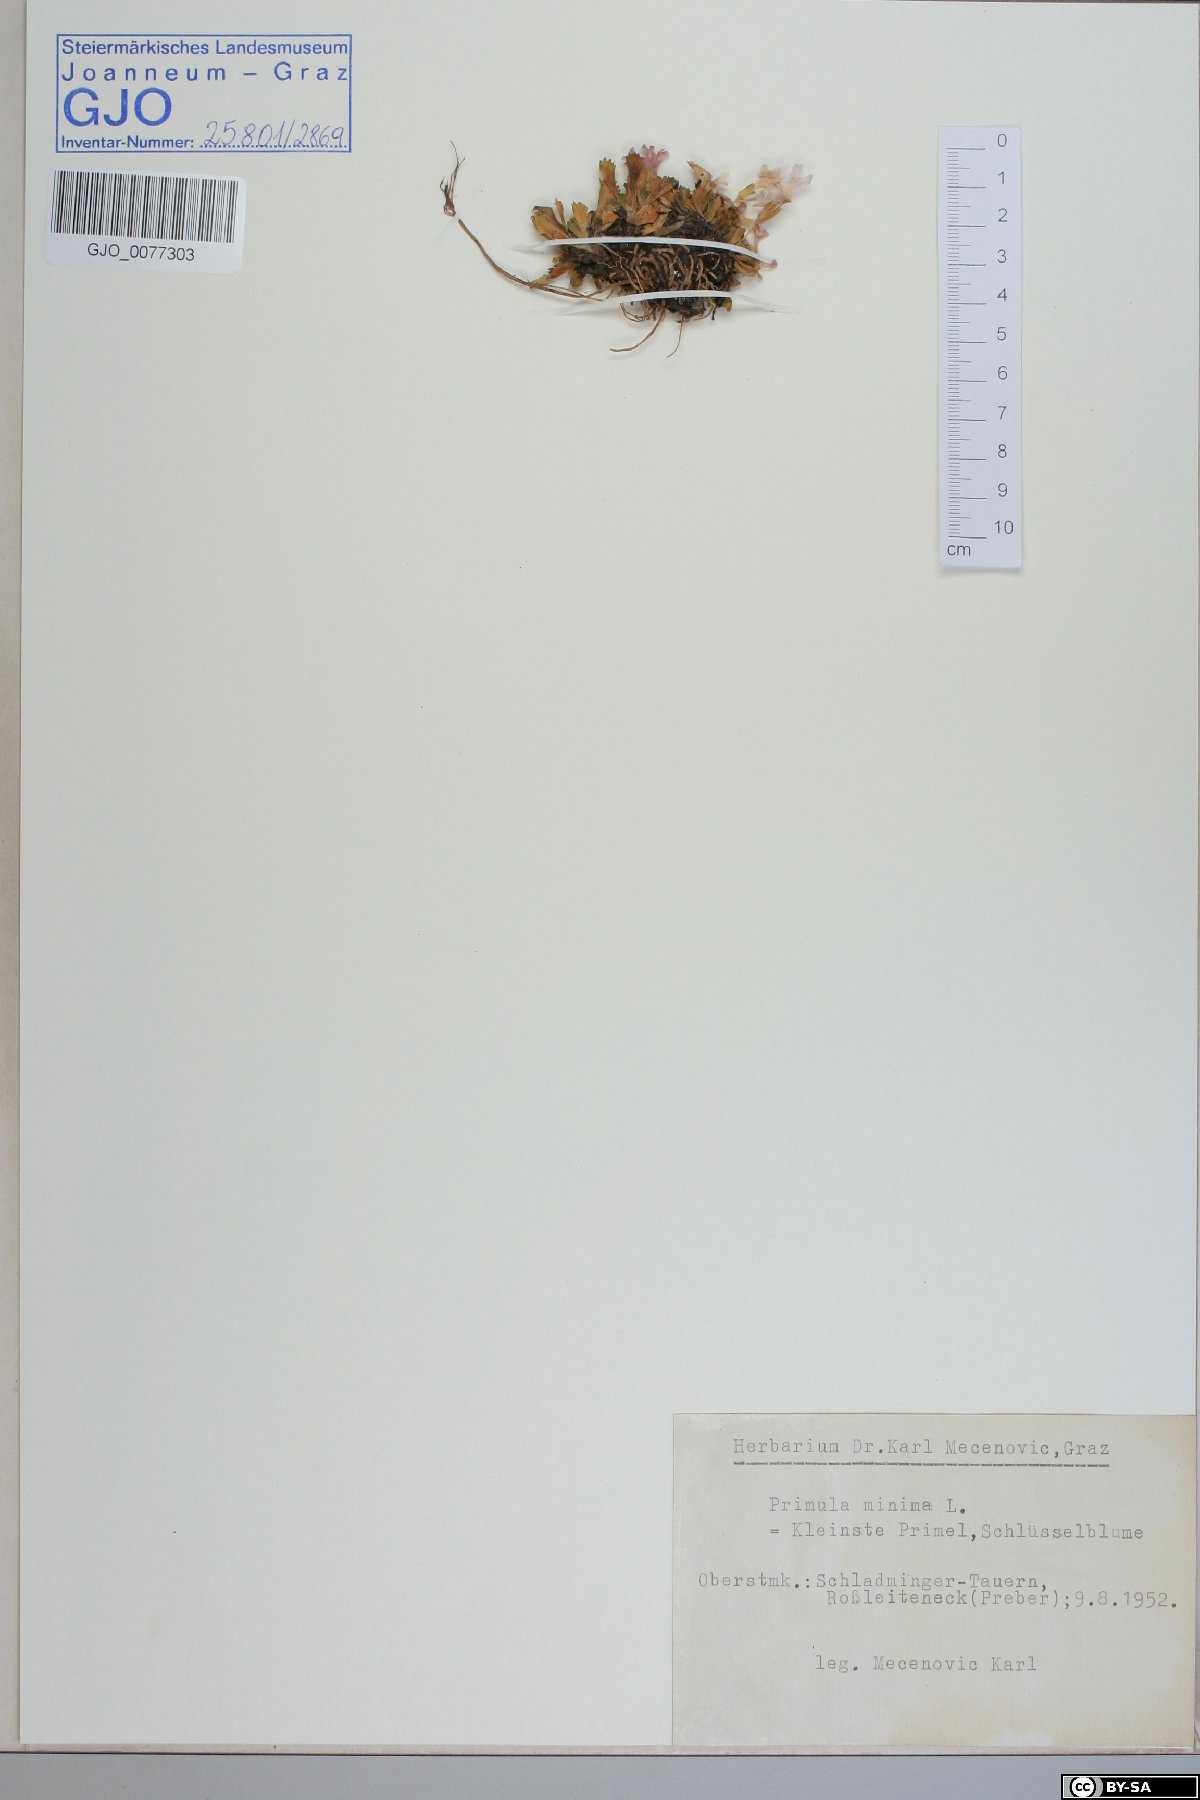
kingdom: Plantae
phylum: Tracheophyta
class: Magnoliopsida
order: Ericales
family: Primulaceae
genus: Primula
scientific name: Primula minima
